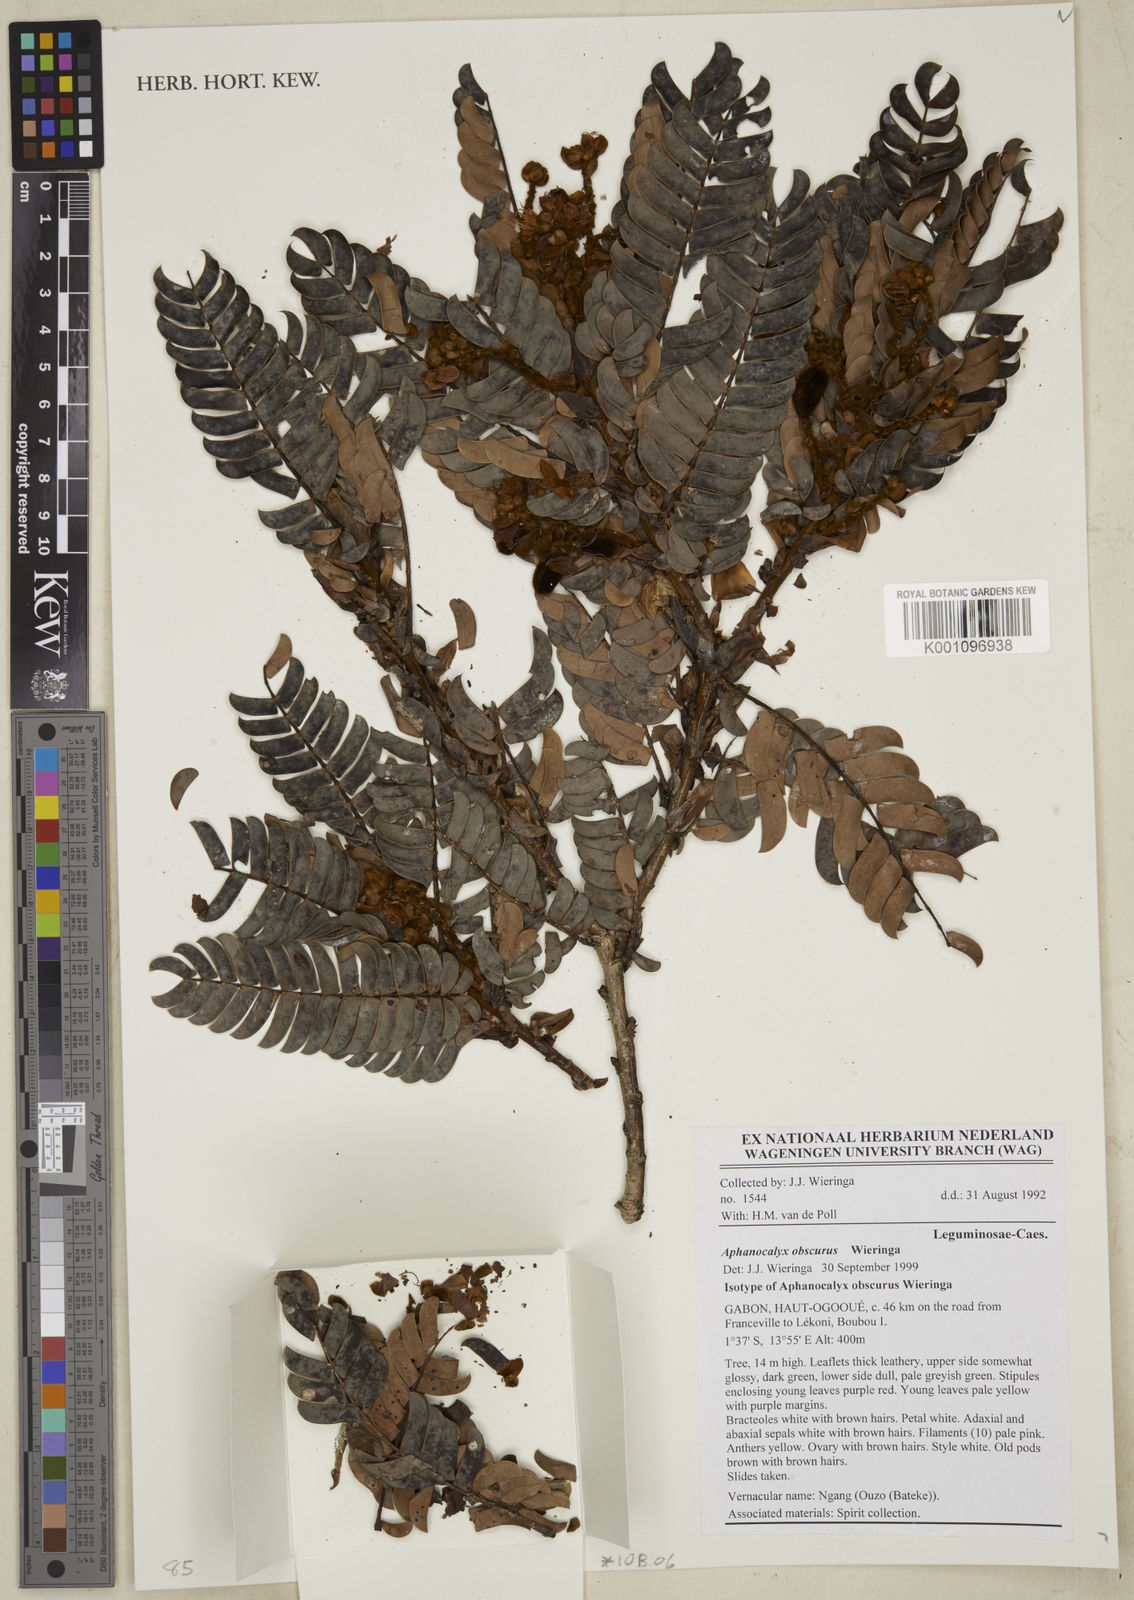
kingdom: Plantae
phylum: Tracheophyta
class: Magnoliopsida
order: Fabales
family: Fabaceae
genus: Aphanocalyx
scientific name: Aphanocalyx obscurus
